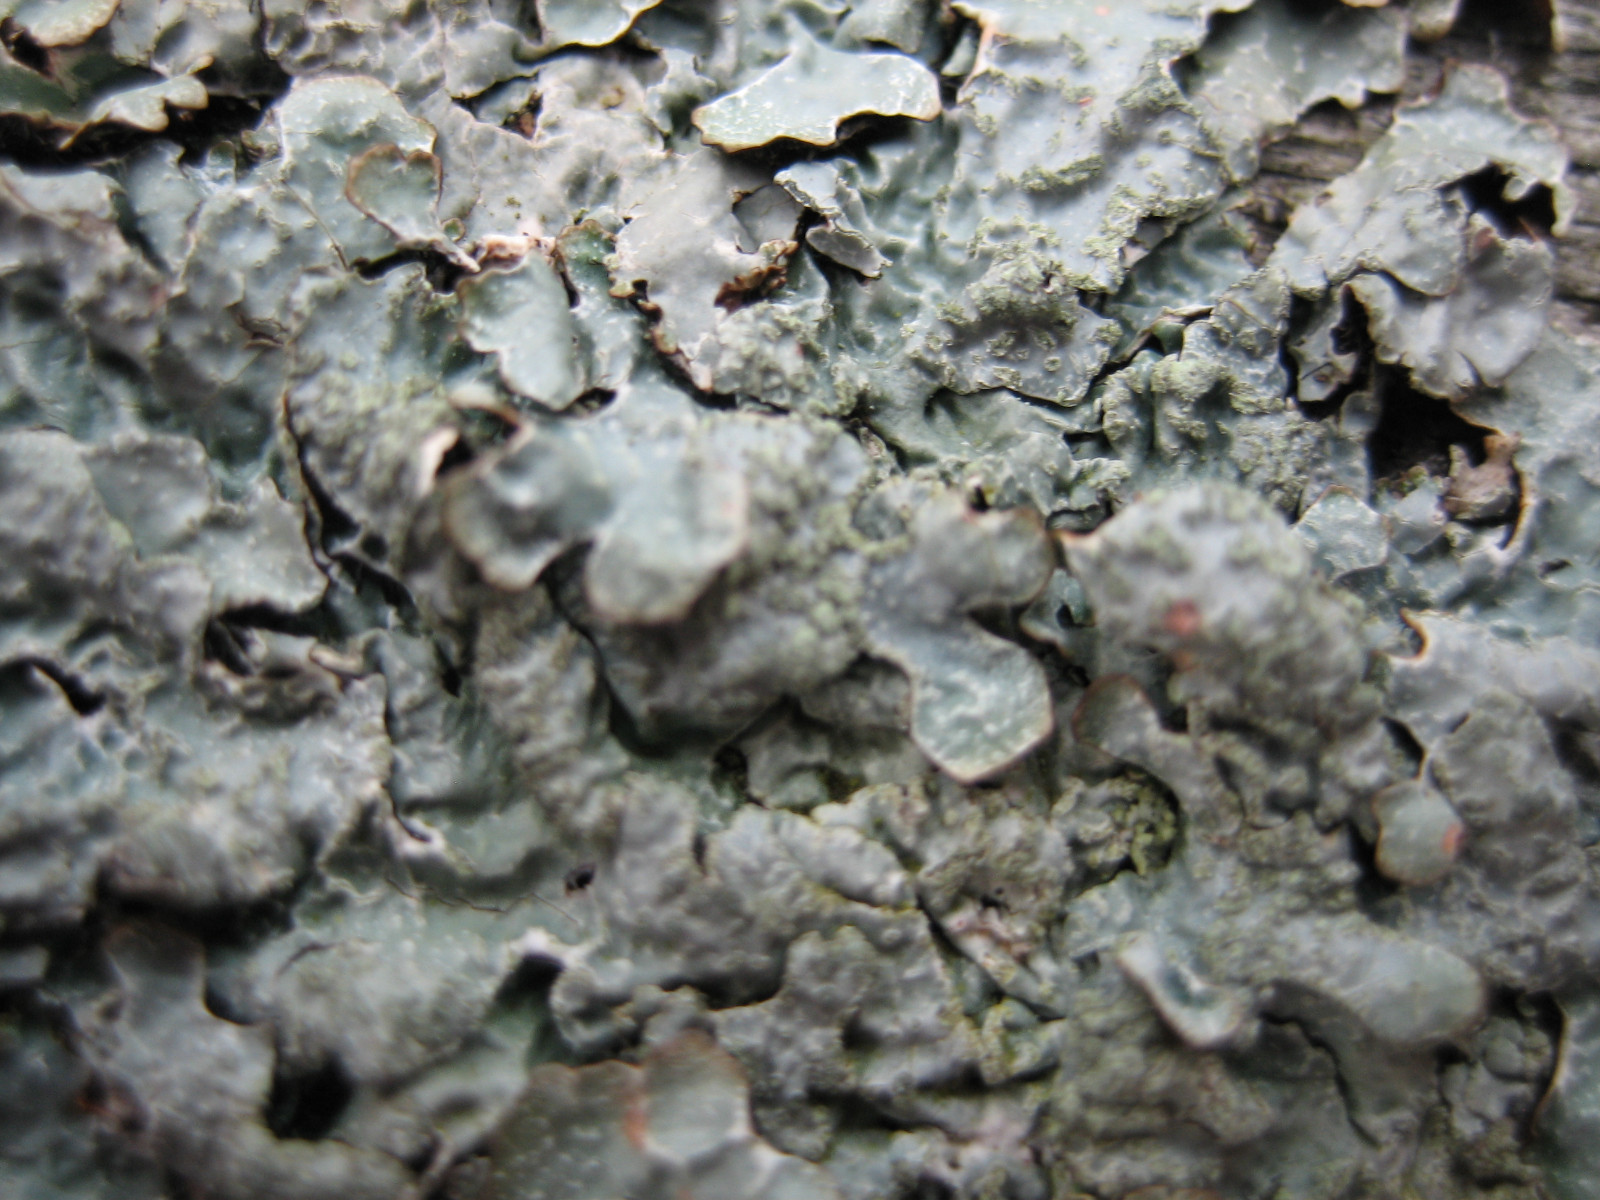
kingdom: Fungi
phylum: Ascomycota
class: Lecanoromycetes
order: Lecanorales
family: Parmeliaceae
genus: Parmelia
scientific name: Parmelia sulcata
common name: rynket skållav
